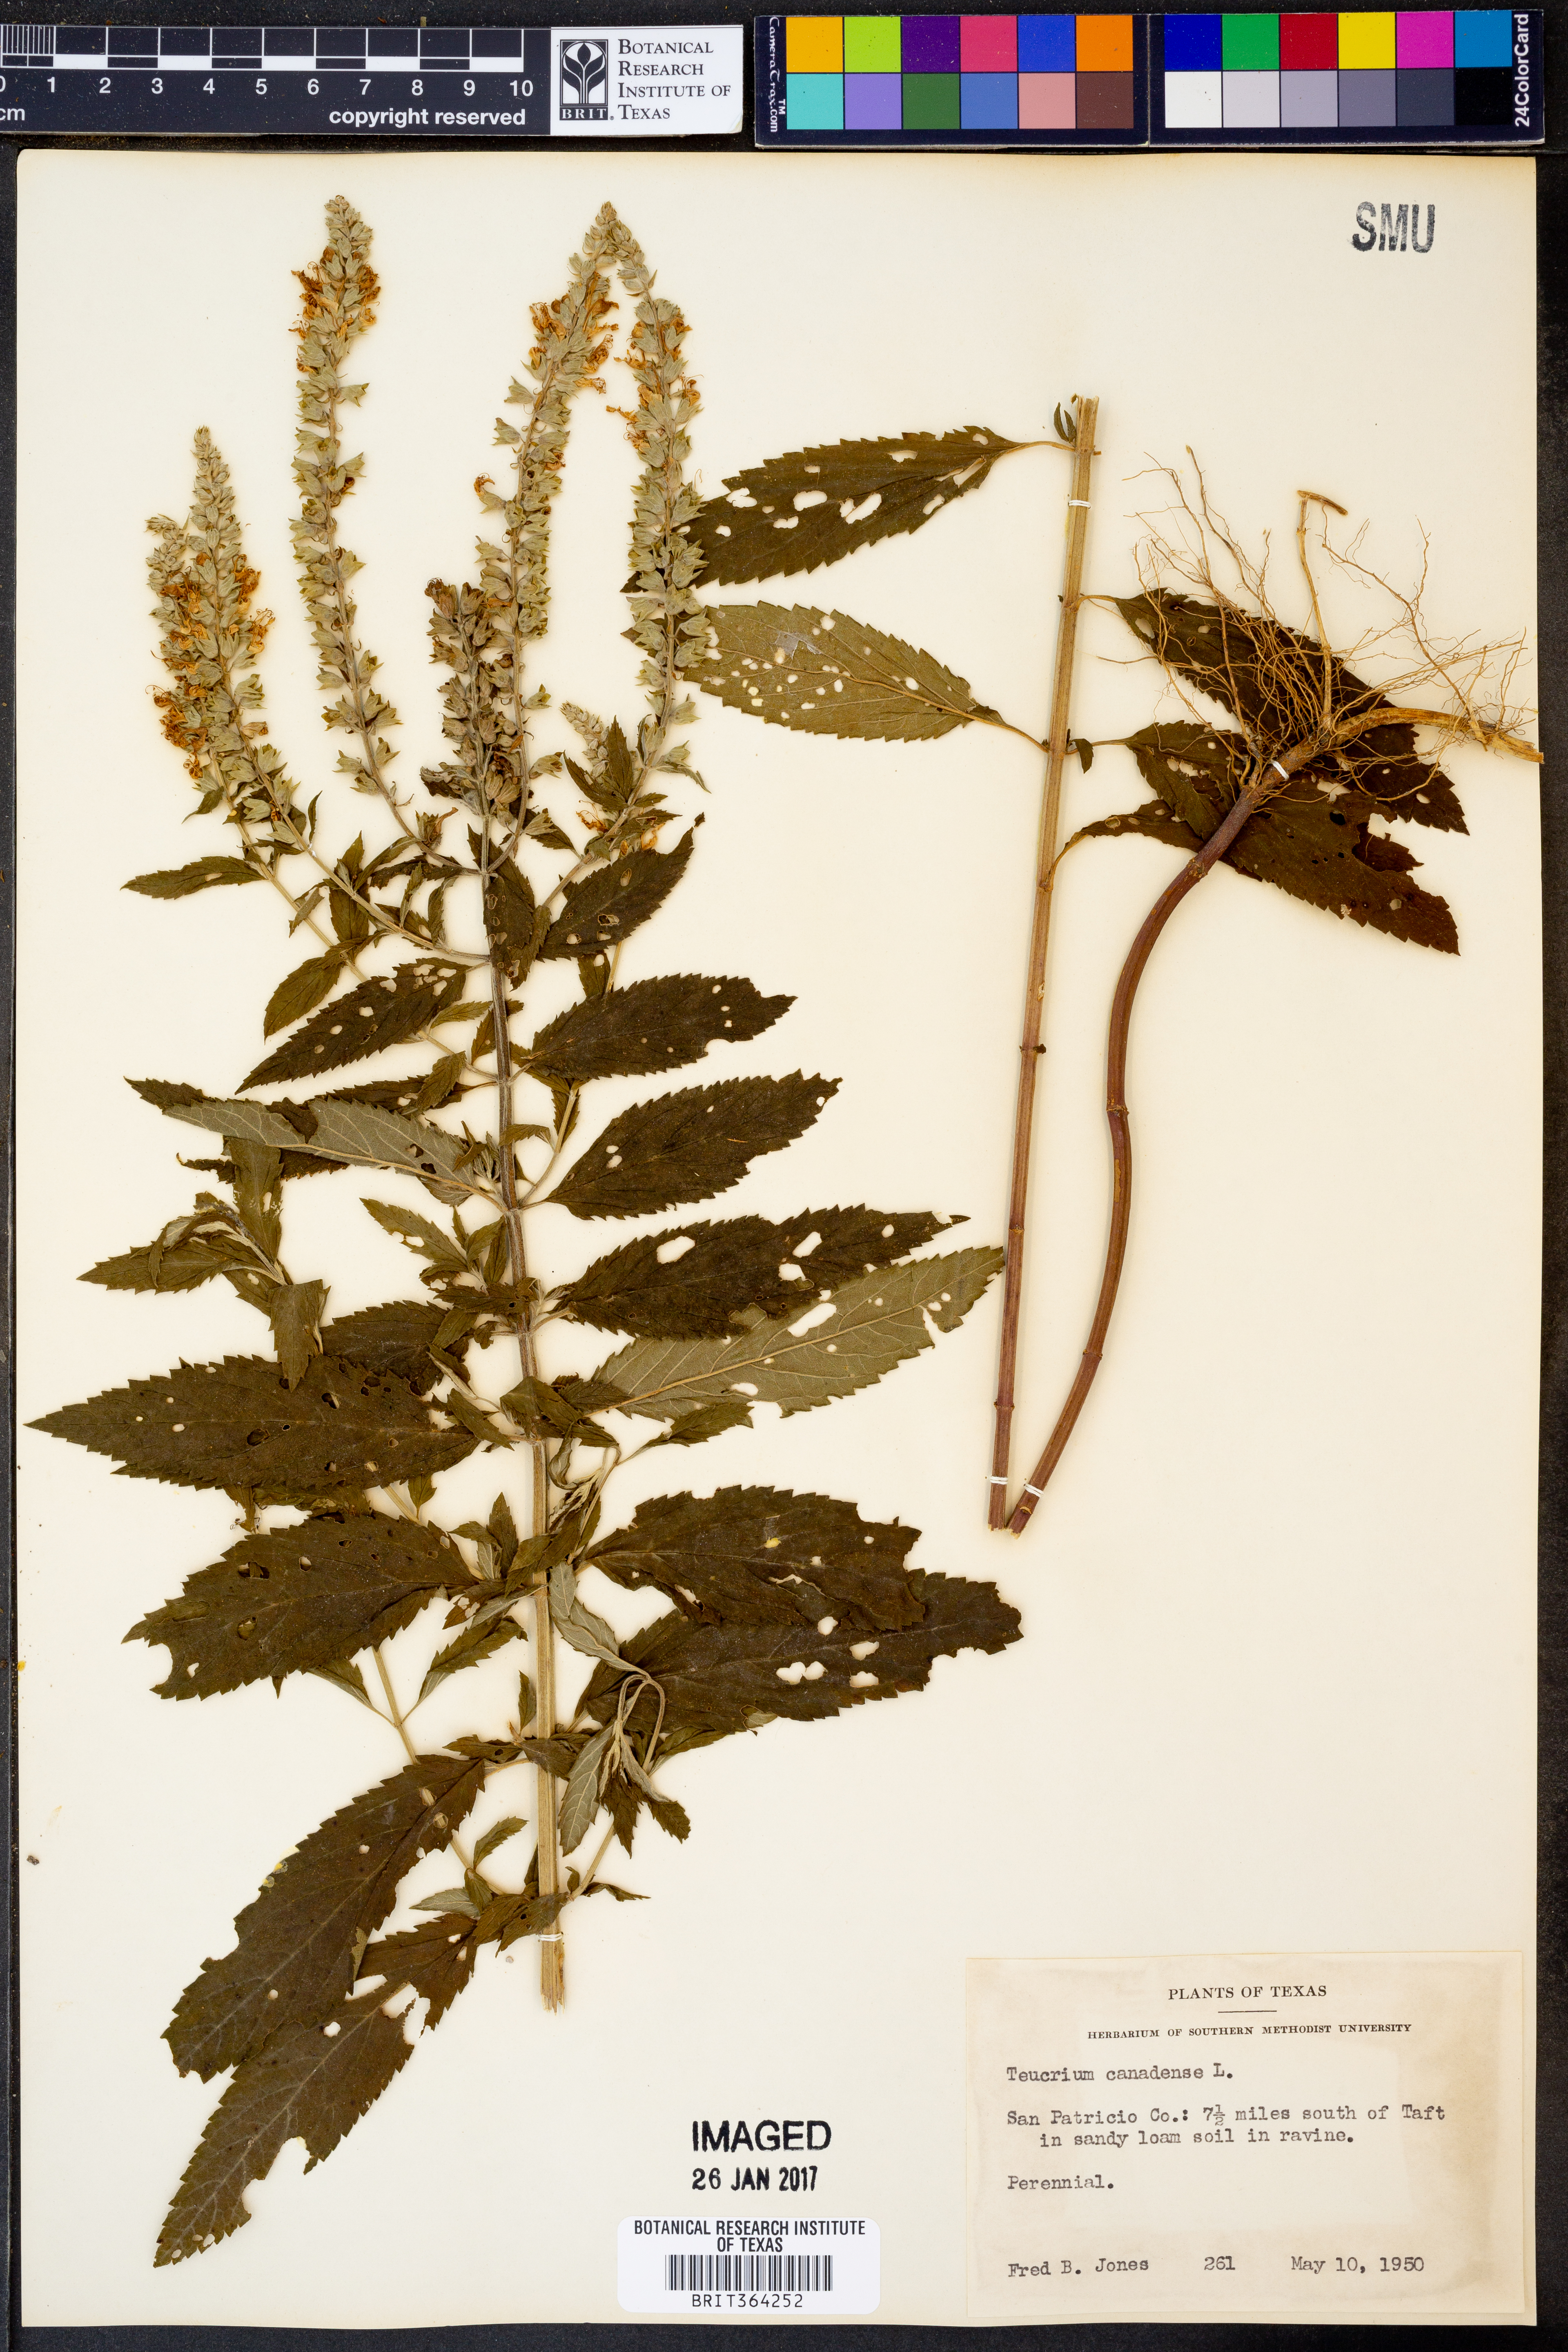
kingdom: Plantae
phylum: Tracheophyta
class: Magnoliopsida
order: Lamiales
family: Lamiaceae
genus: Teucrium
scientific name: Teucrium canadense
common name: American germander
